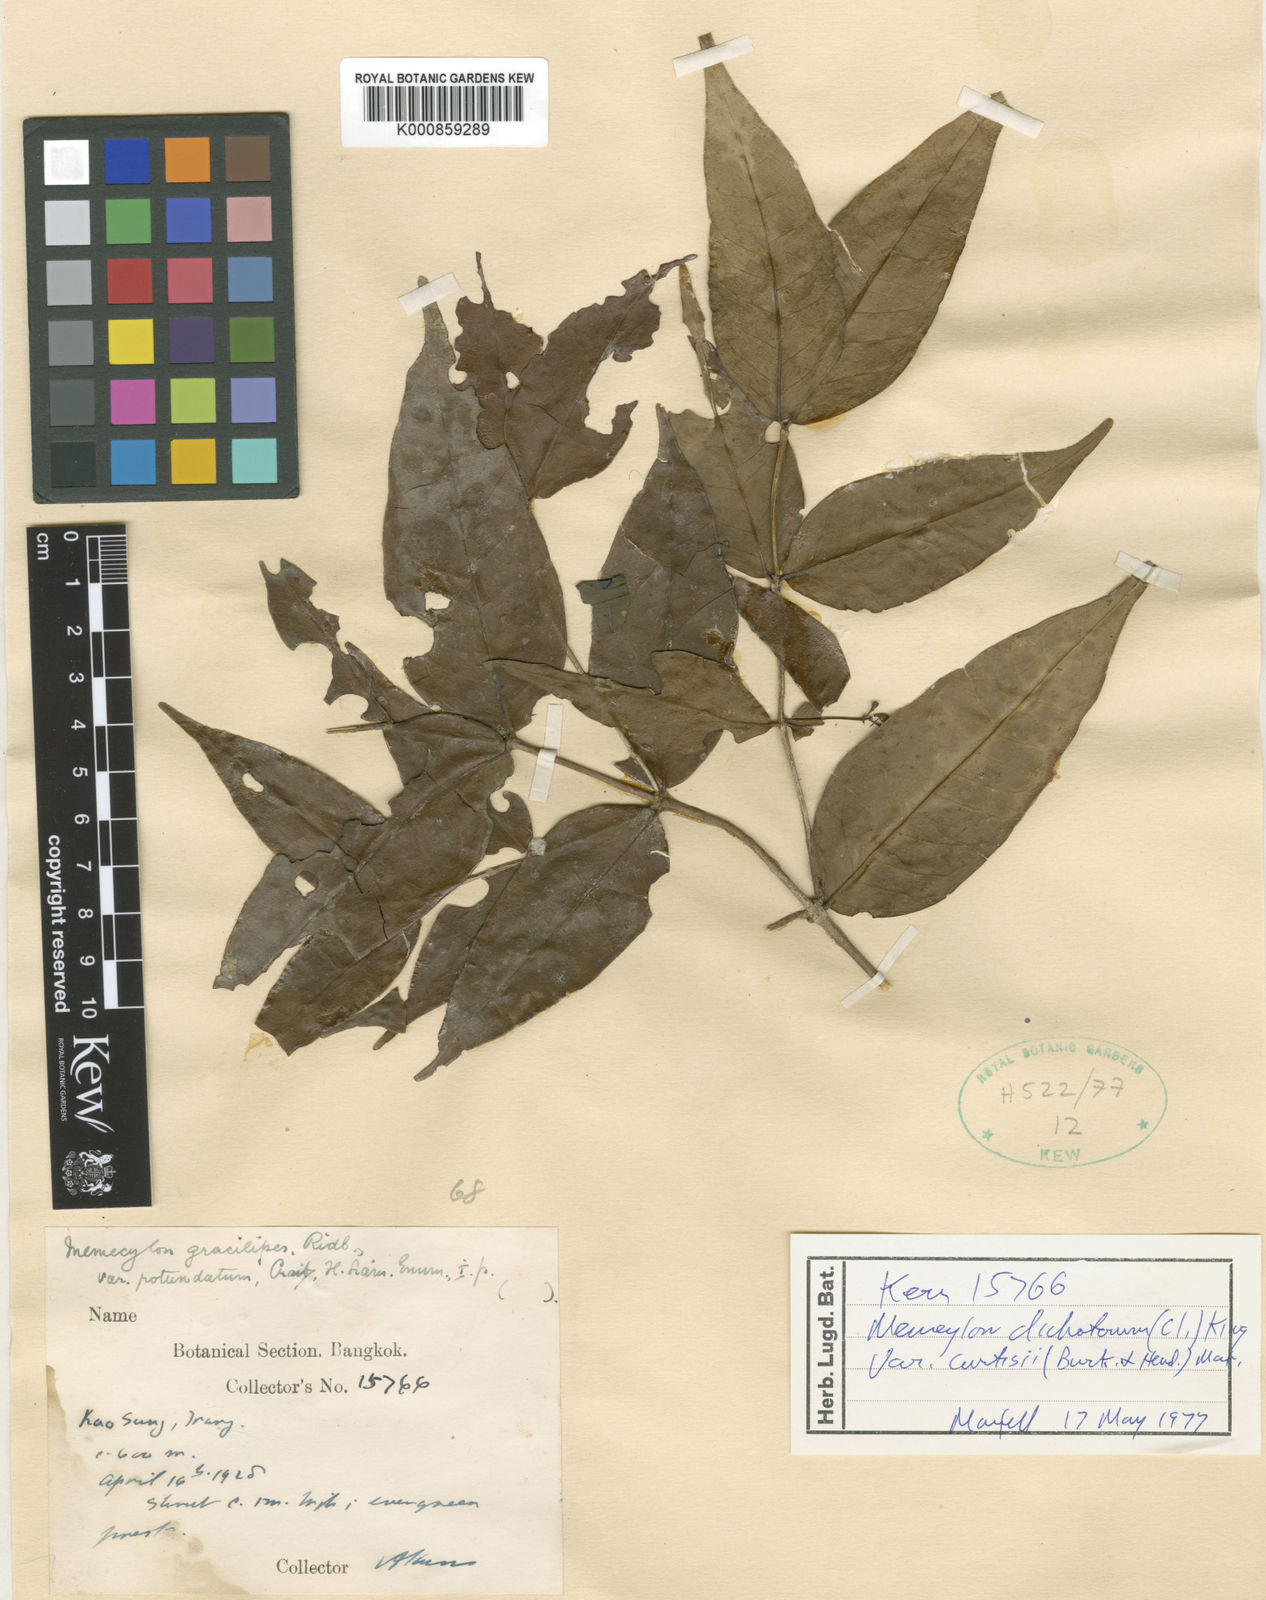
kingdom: Plantae
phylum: Tracheophyta
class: Magnoliopsida
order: Myrtales
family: Melastomataceae
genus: Memecylon
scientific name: Memecylon dichotomum
